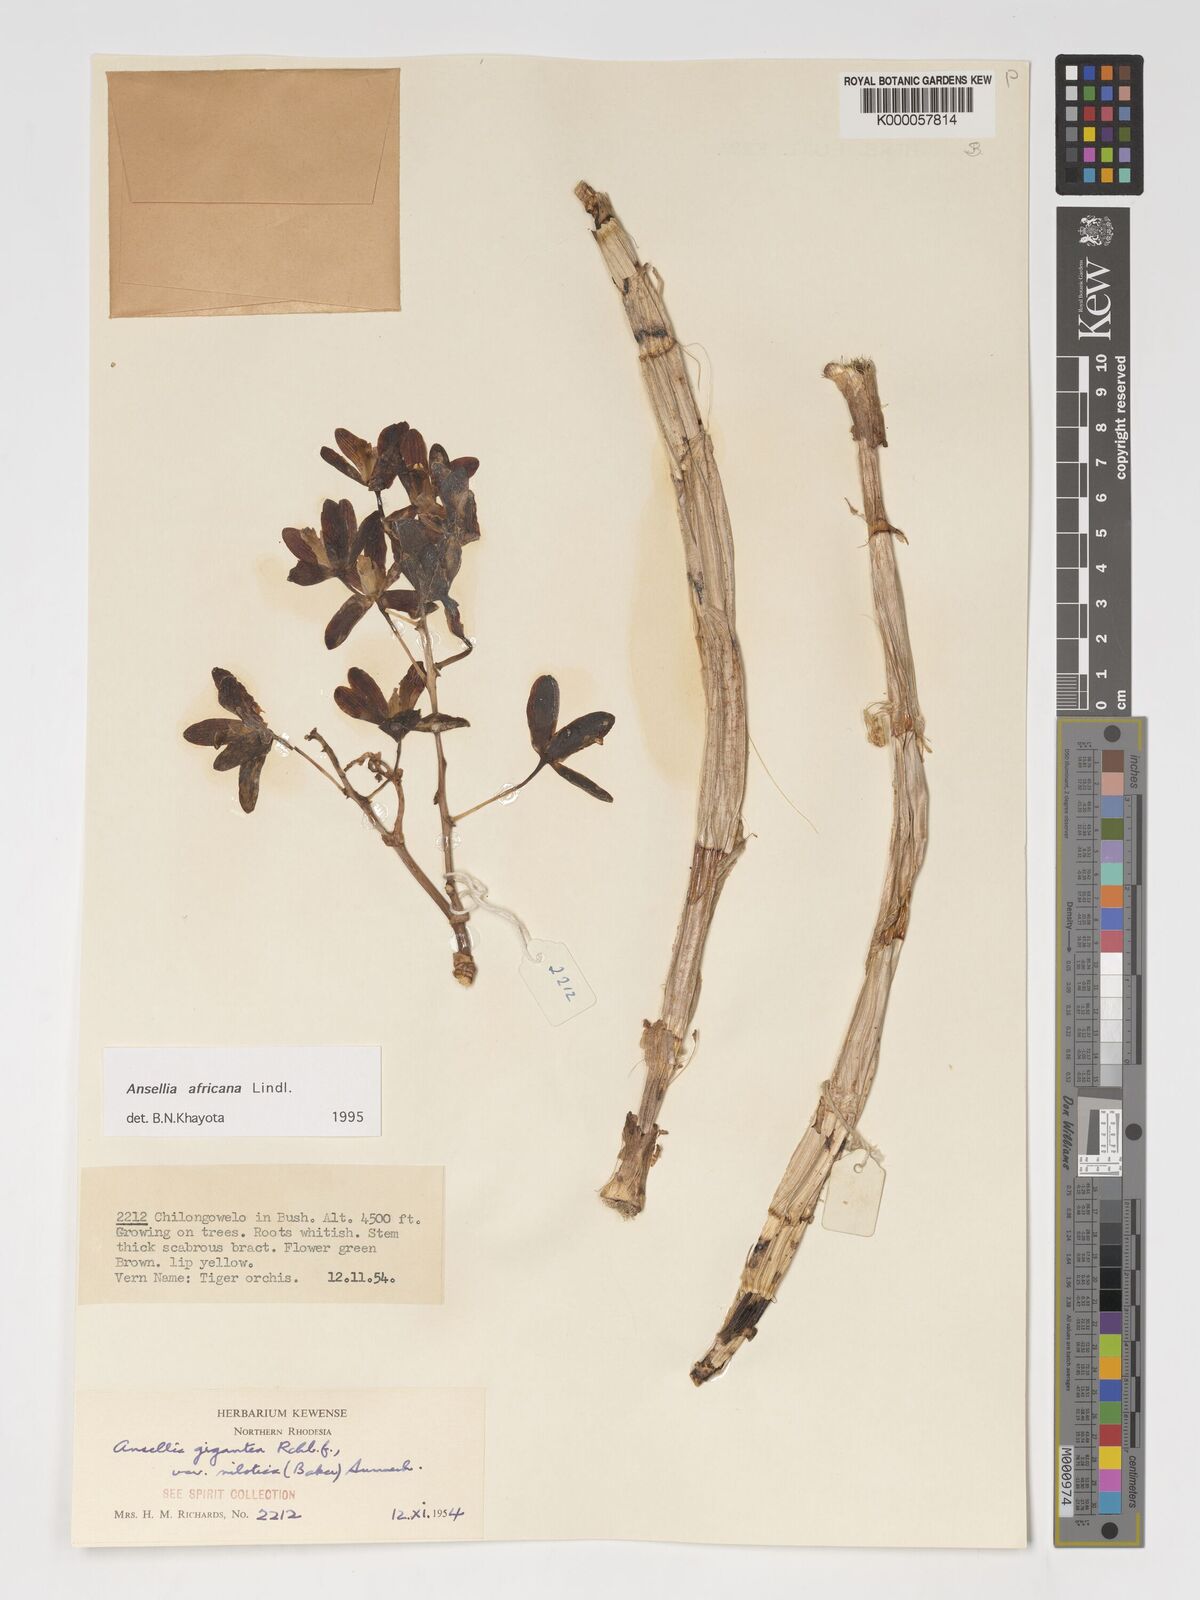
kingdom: Plantae
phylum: Tracheophyta
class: Liliopsida
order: Asparagales
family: Orchidaceae
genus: Ansellia
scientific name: Ansellia africana
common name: African ansellia
